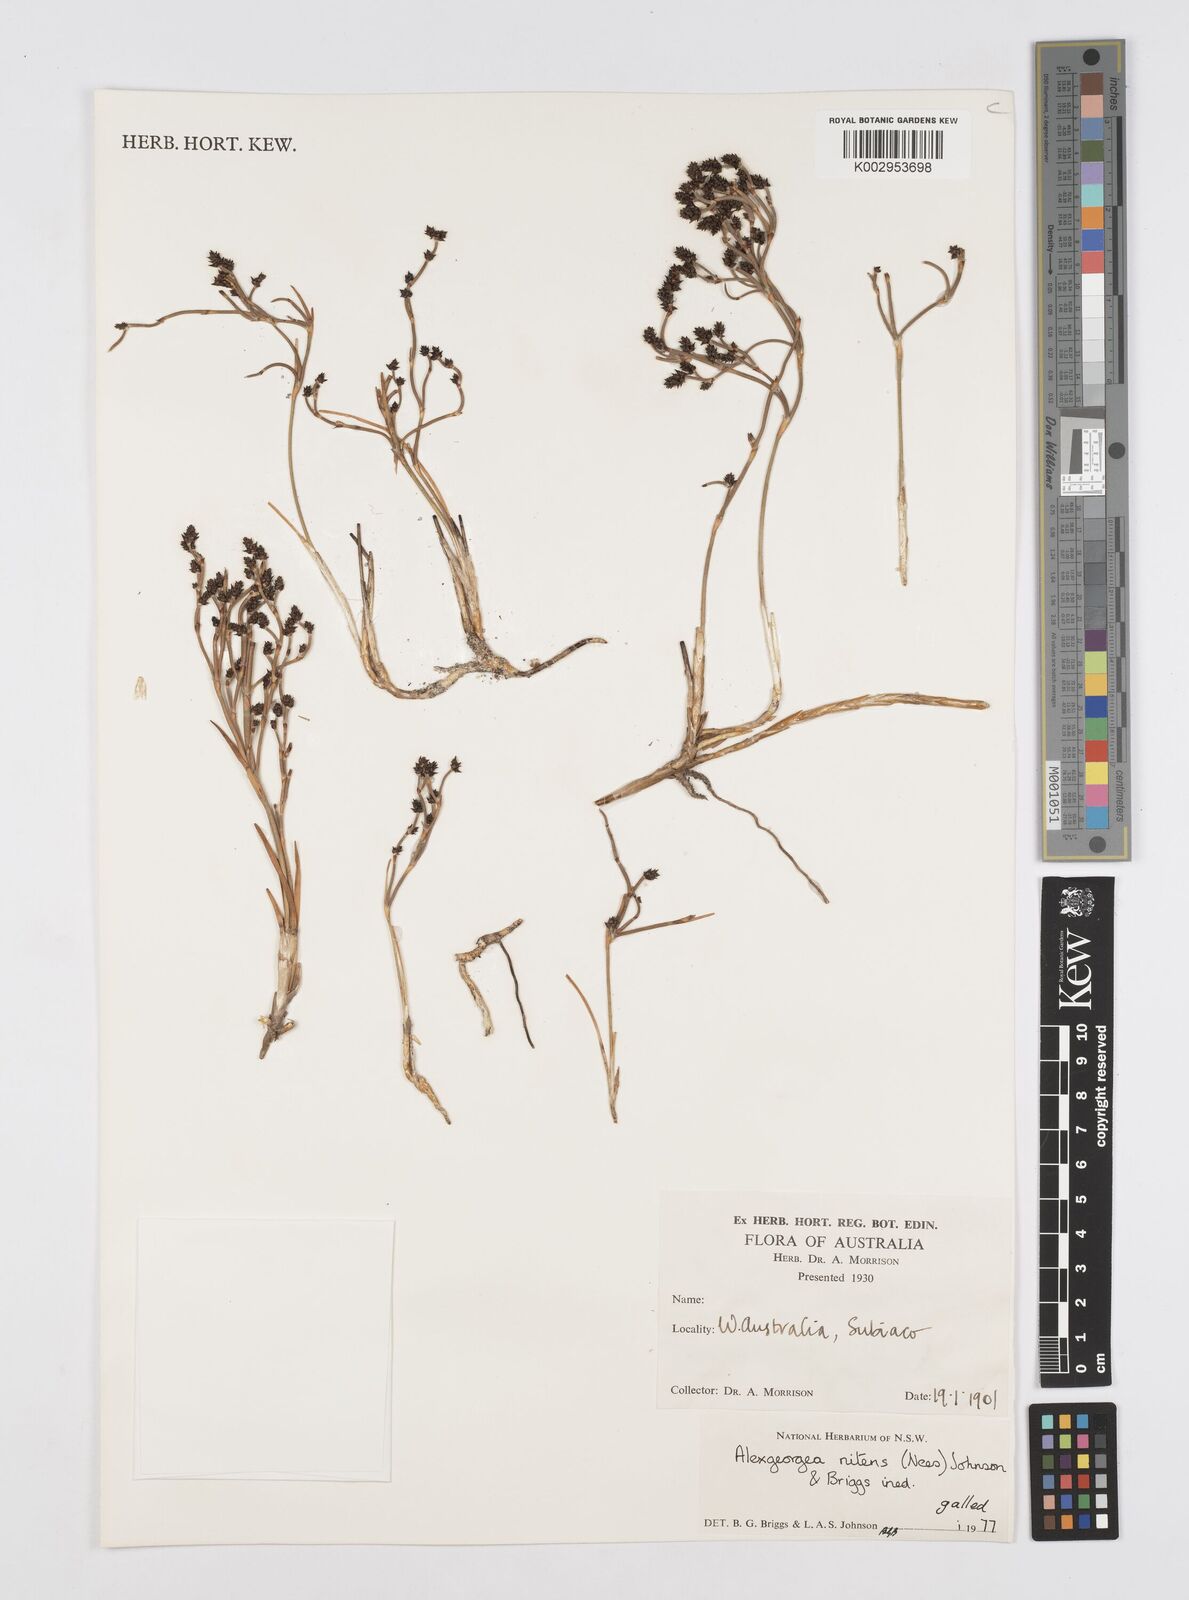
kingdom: Plantae
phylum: Tracheophyta
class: Liliopsida
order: Poales
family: Restionaceae
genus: Alexgeorgea
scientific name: Alexgeorgea nitens
